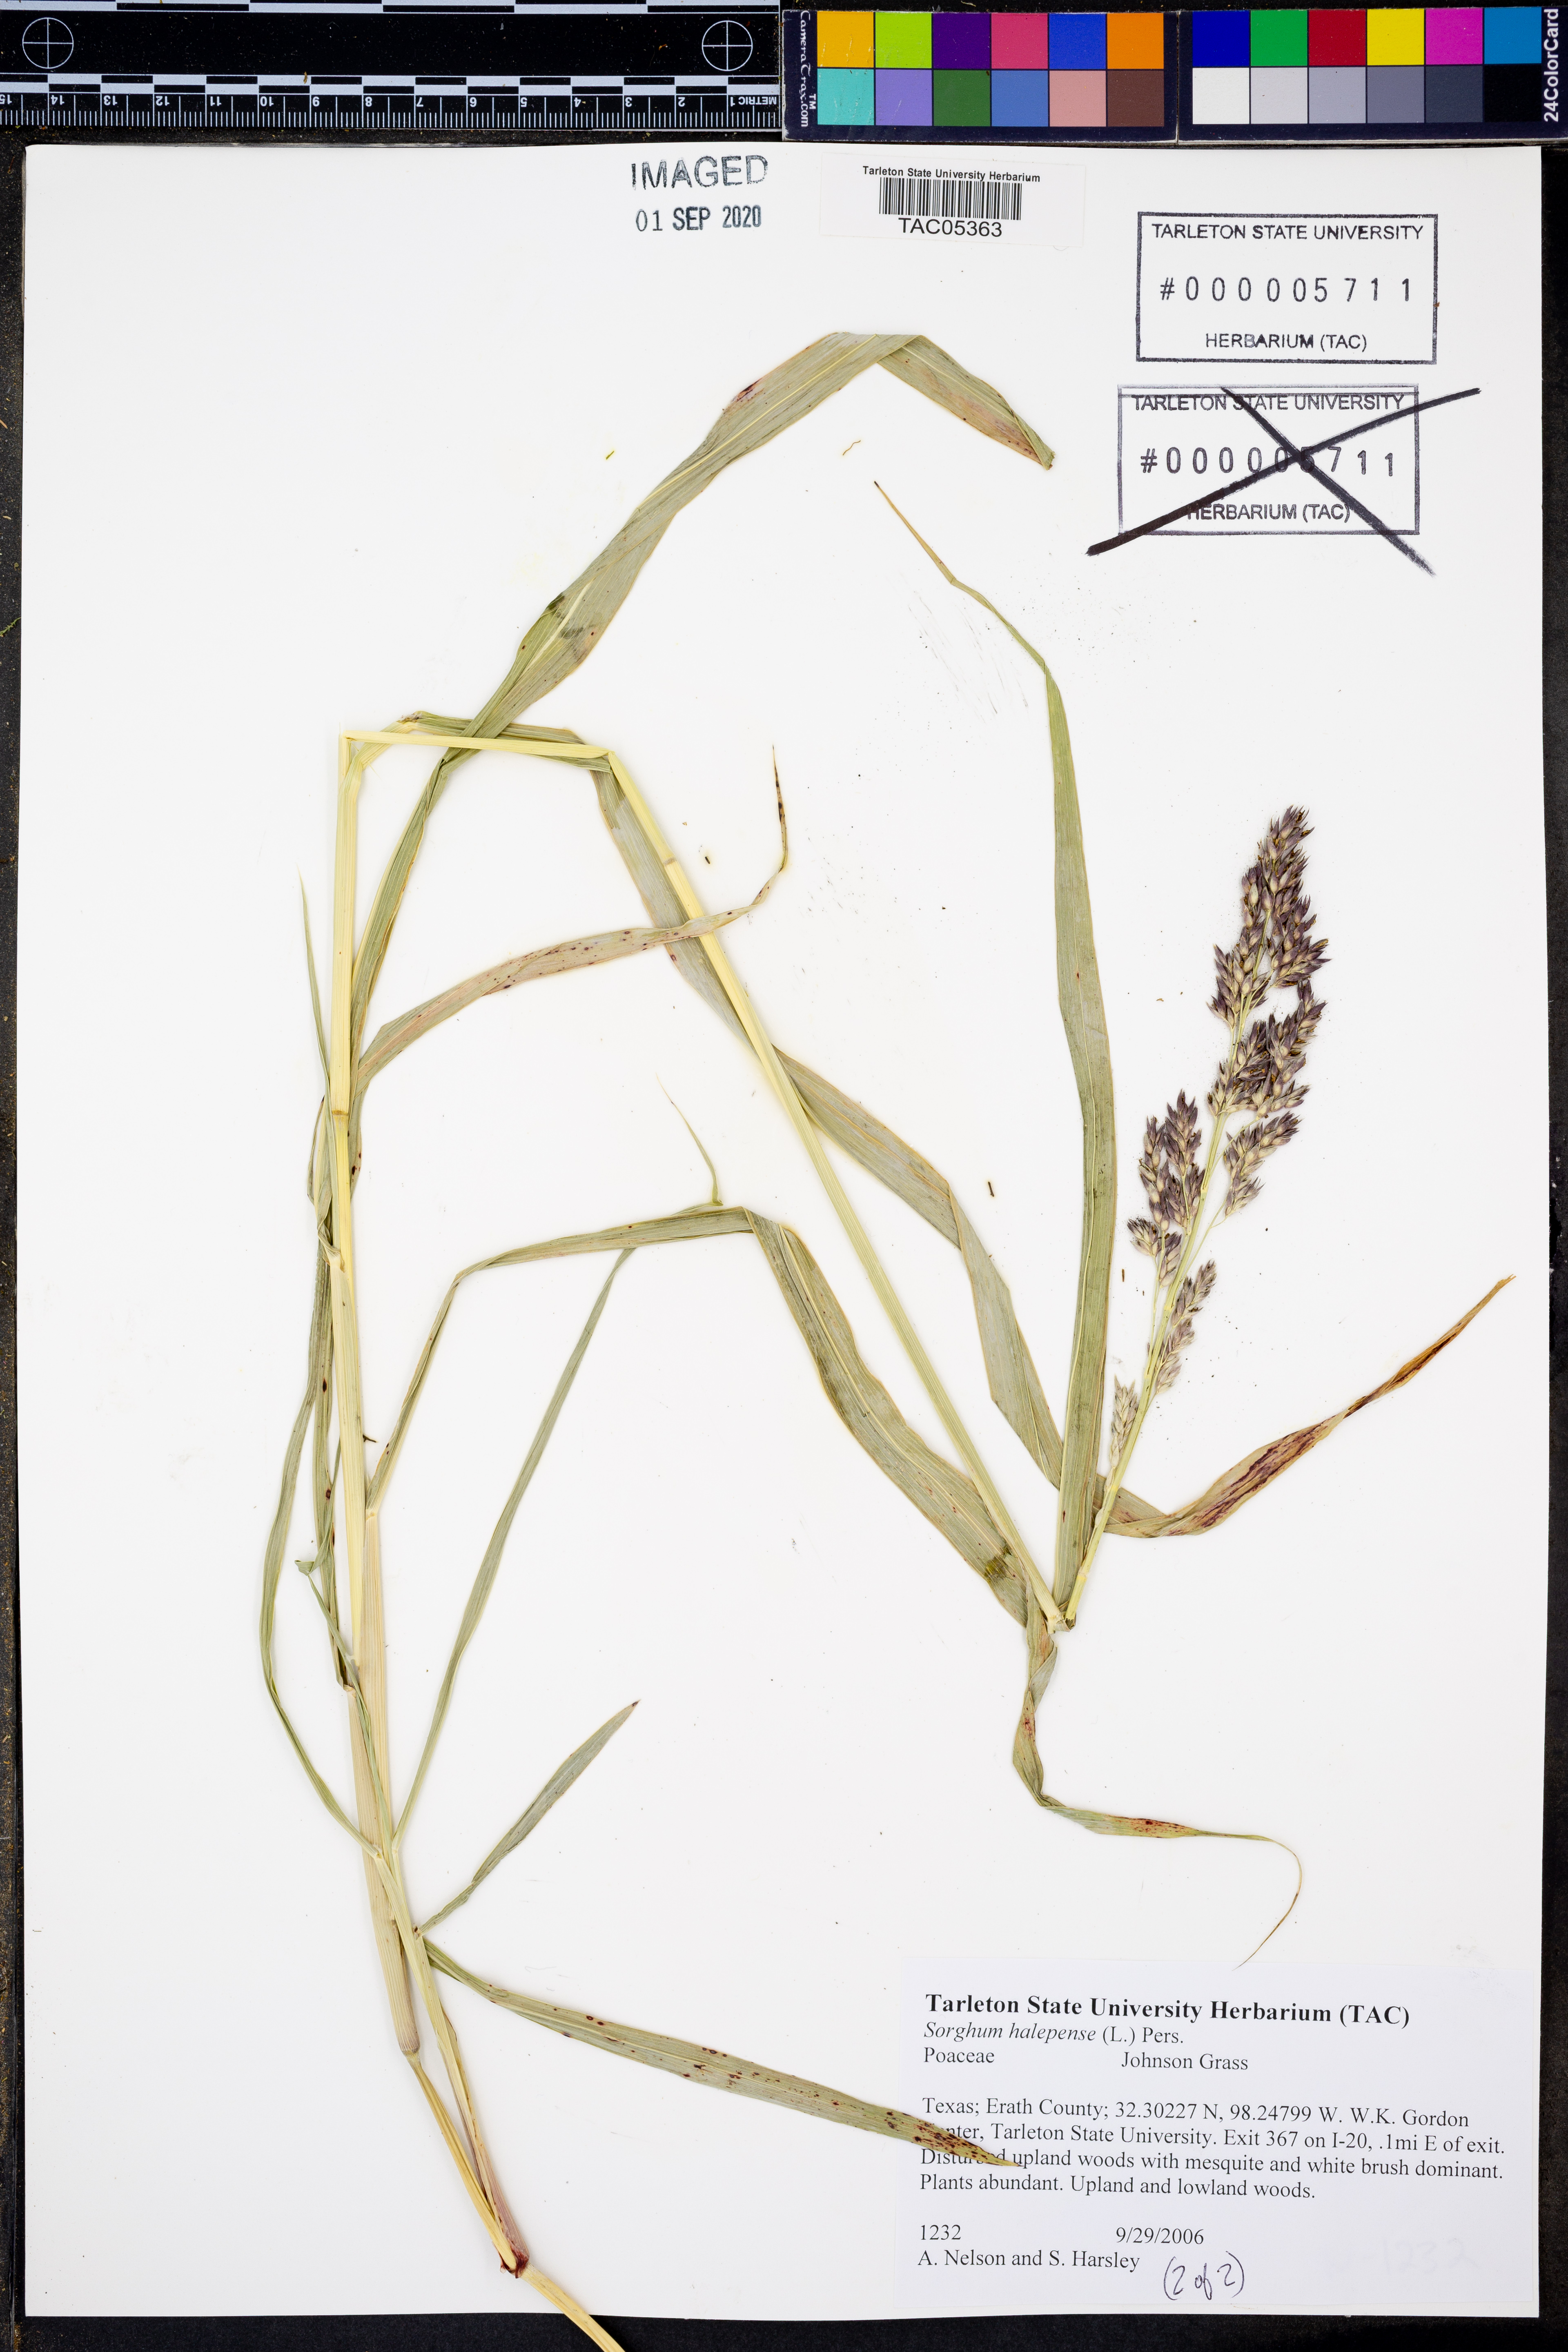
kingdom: Plantae
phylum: Tracheophyta
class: Liliopsida
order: Poales
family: Poaceae
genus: Sorghum
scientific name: Sorghum halepense
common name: Johnson-grass
